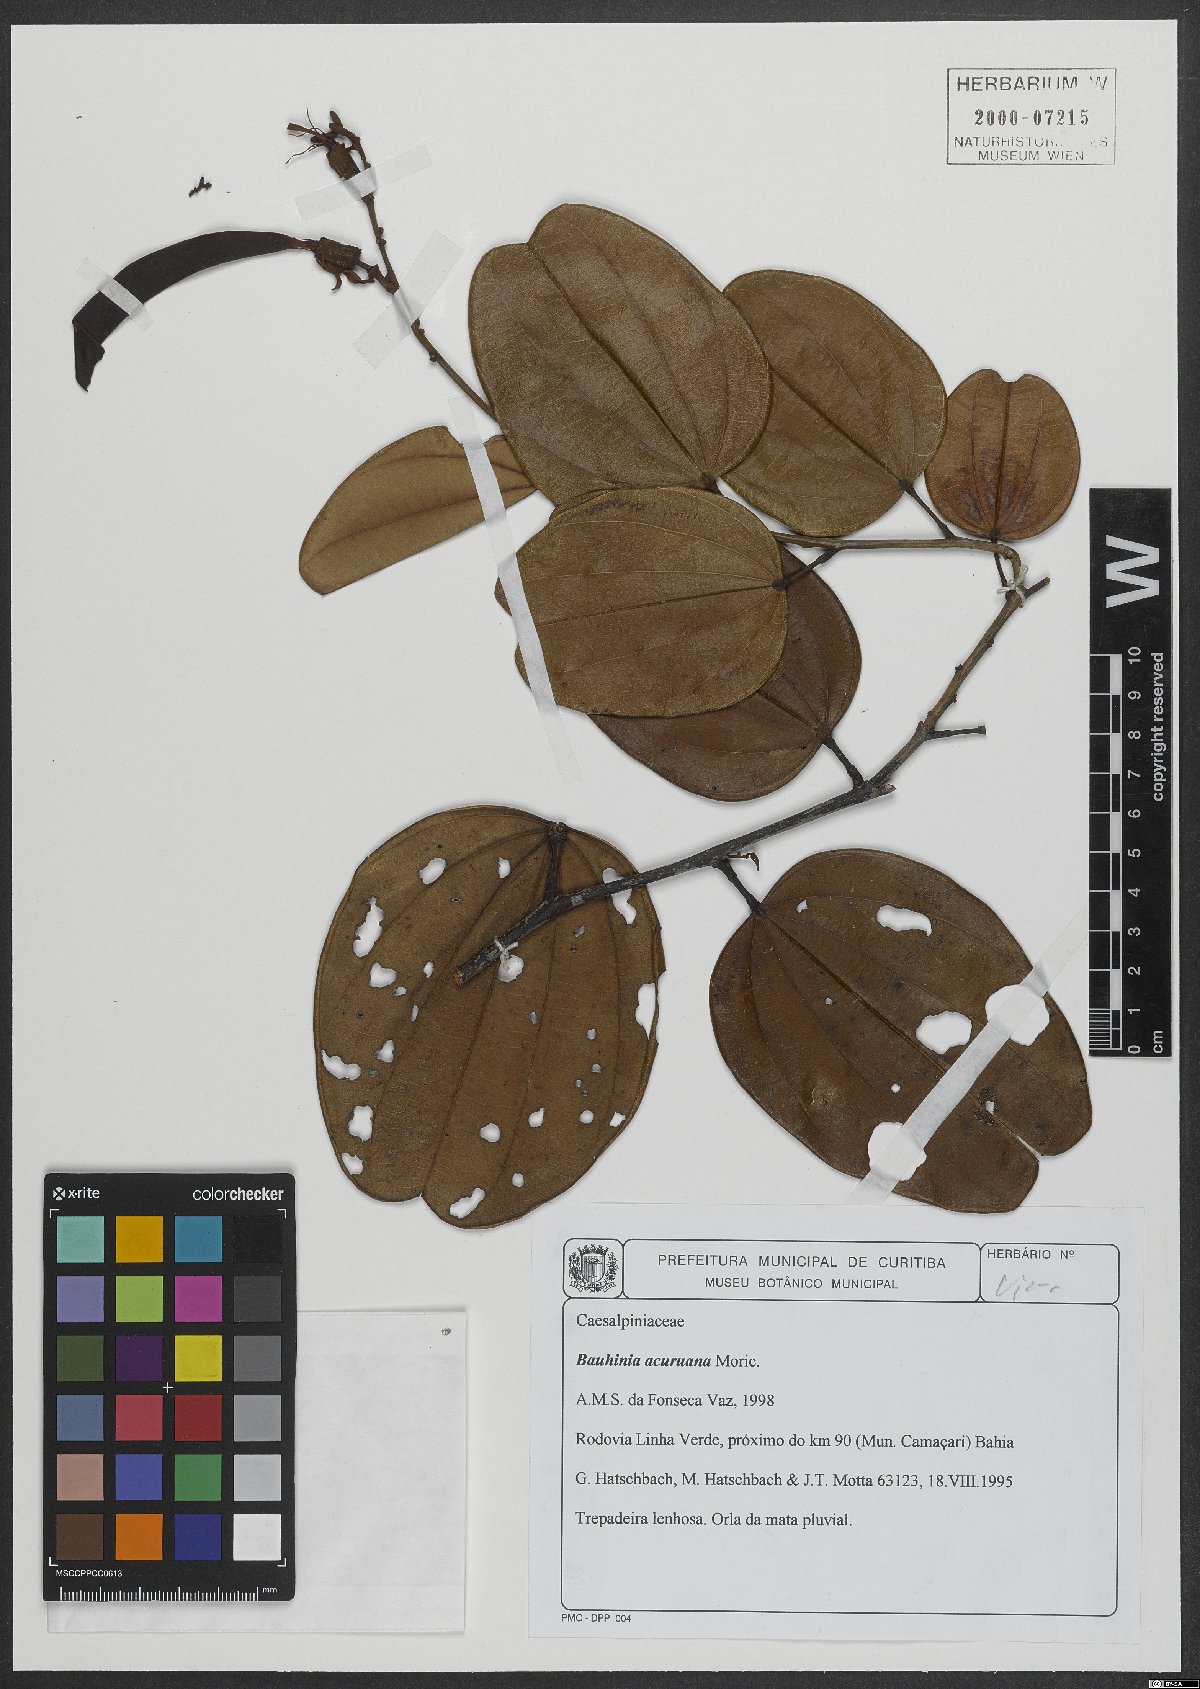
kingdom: Plantae
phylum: Tracheophyta
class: Magnoliopsida
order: Fabales
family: Fabaceae
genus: Bauhinia
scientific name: Bauhinia acuruana
